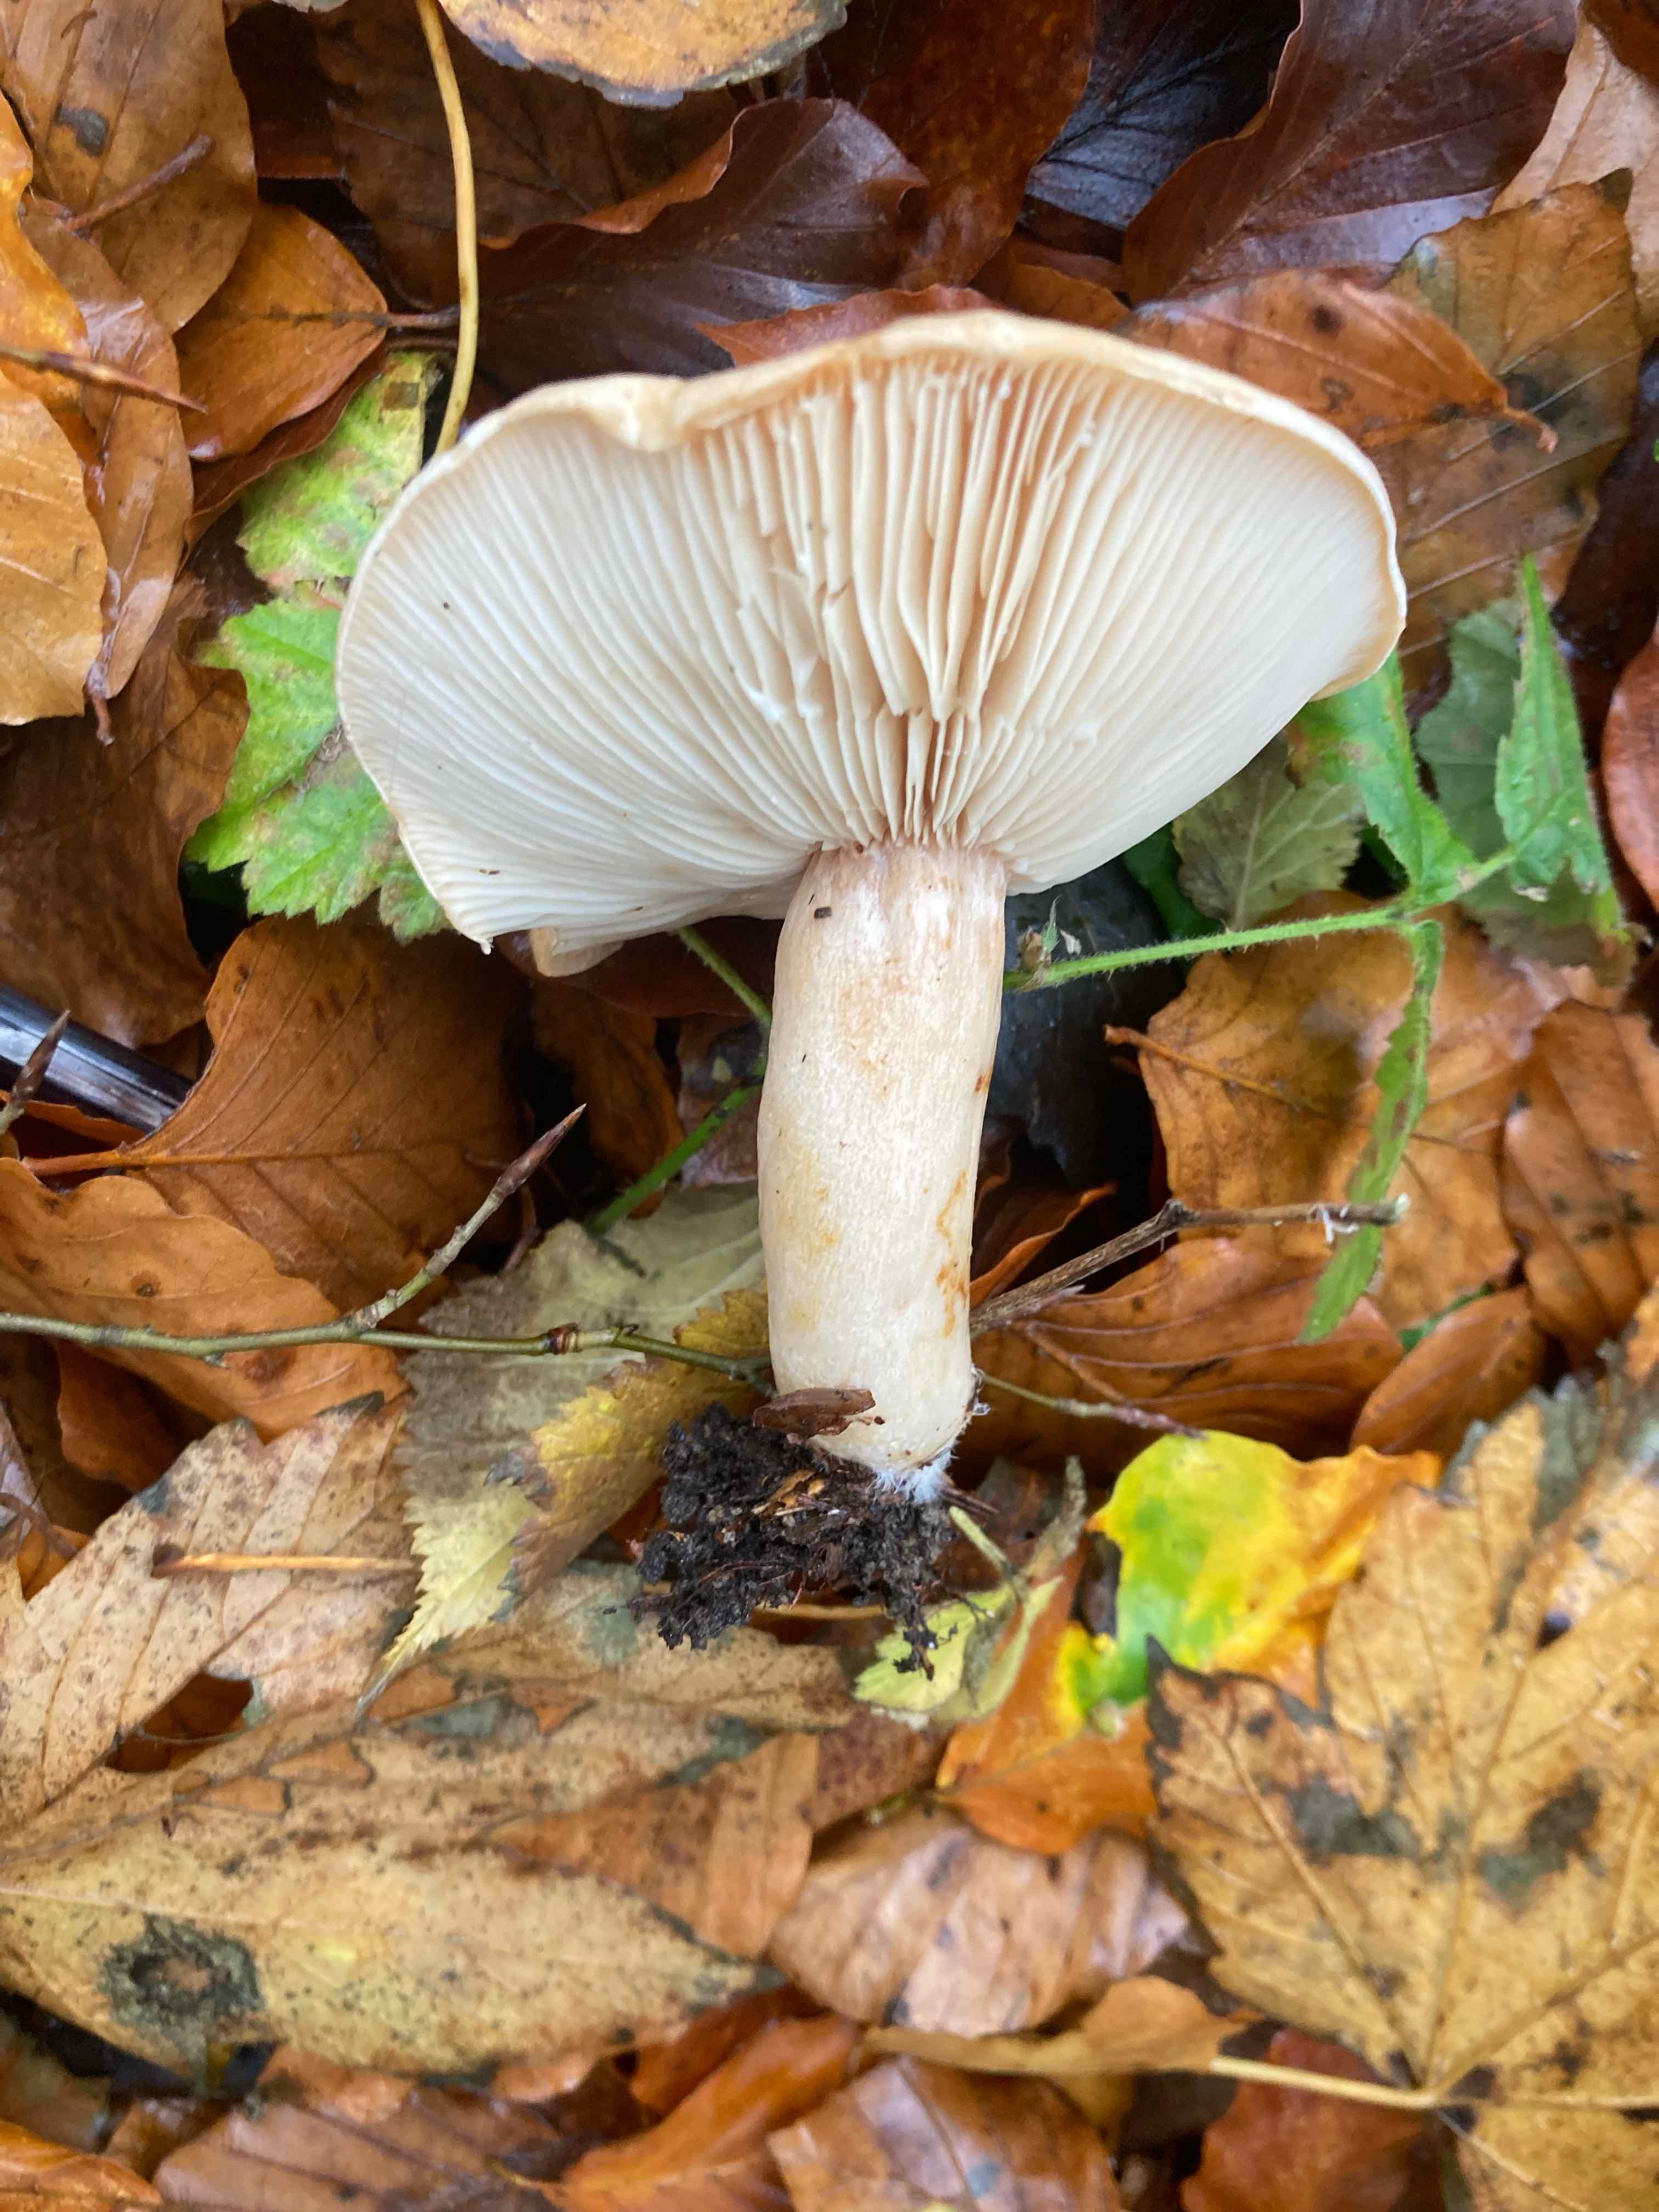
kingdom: Fungi
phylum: Basidiomycota
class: Agaricomycetes
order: Russulales
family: Russulaceae
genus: Lactarius
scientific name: Lactarius pallidus
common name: bleg mælkehat
